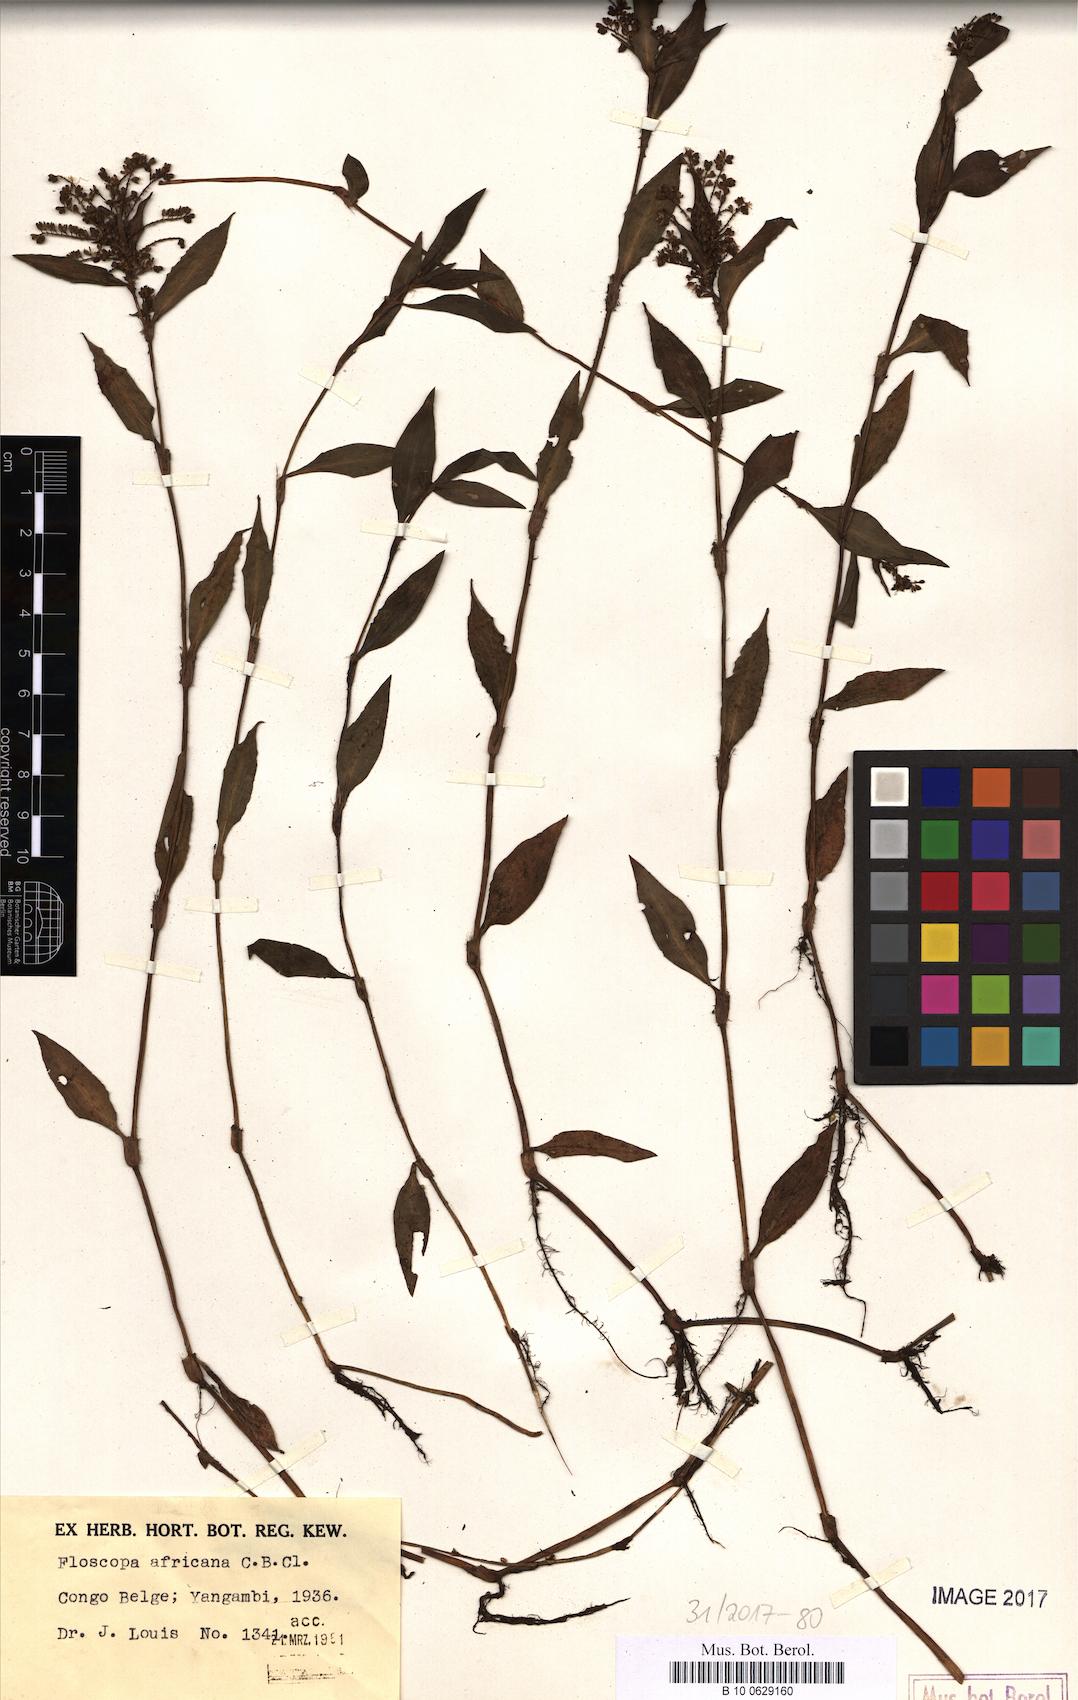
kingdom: Plantae
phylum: Tracheophyta
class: Liliopsida
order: Commelinales
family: Commelinaceae
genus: Floscopa
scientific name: Floscopa africana
